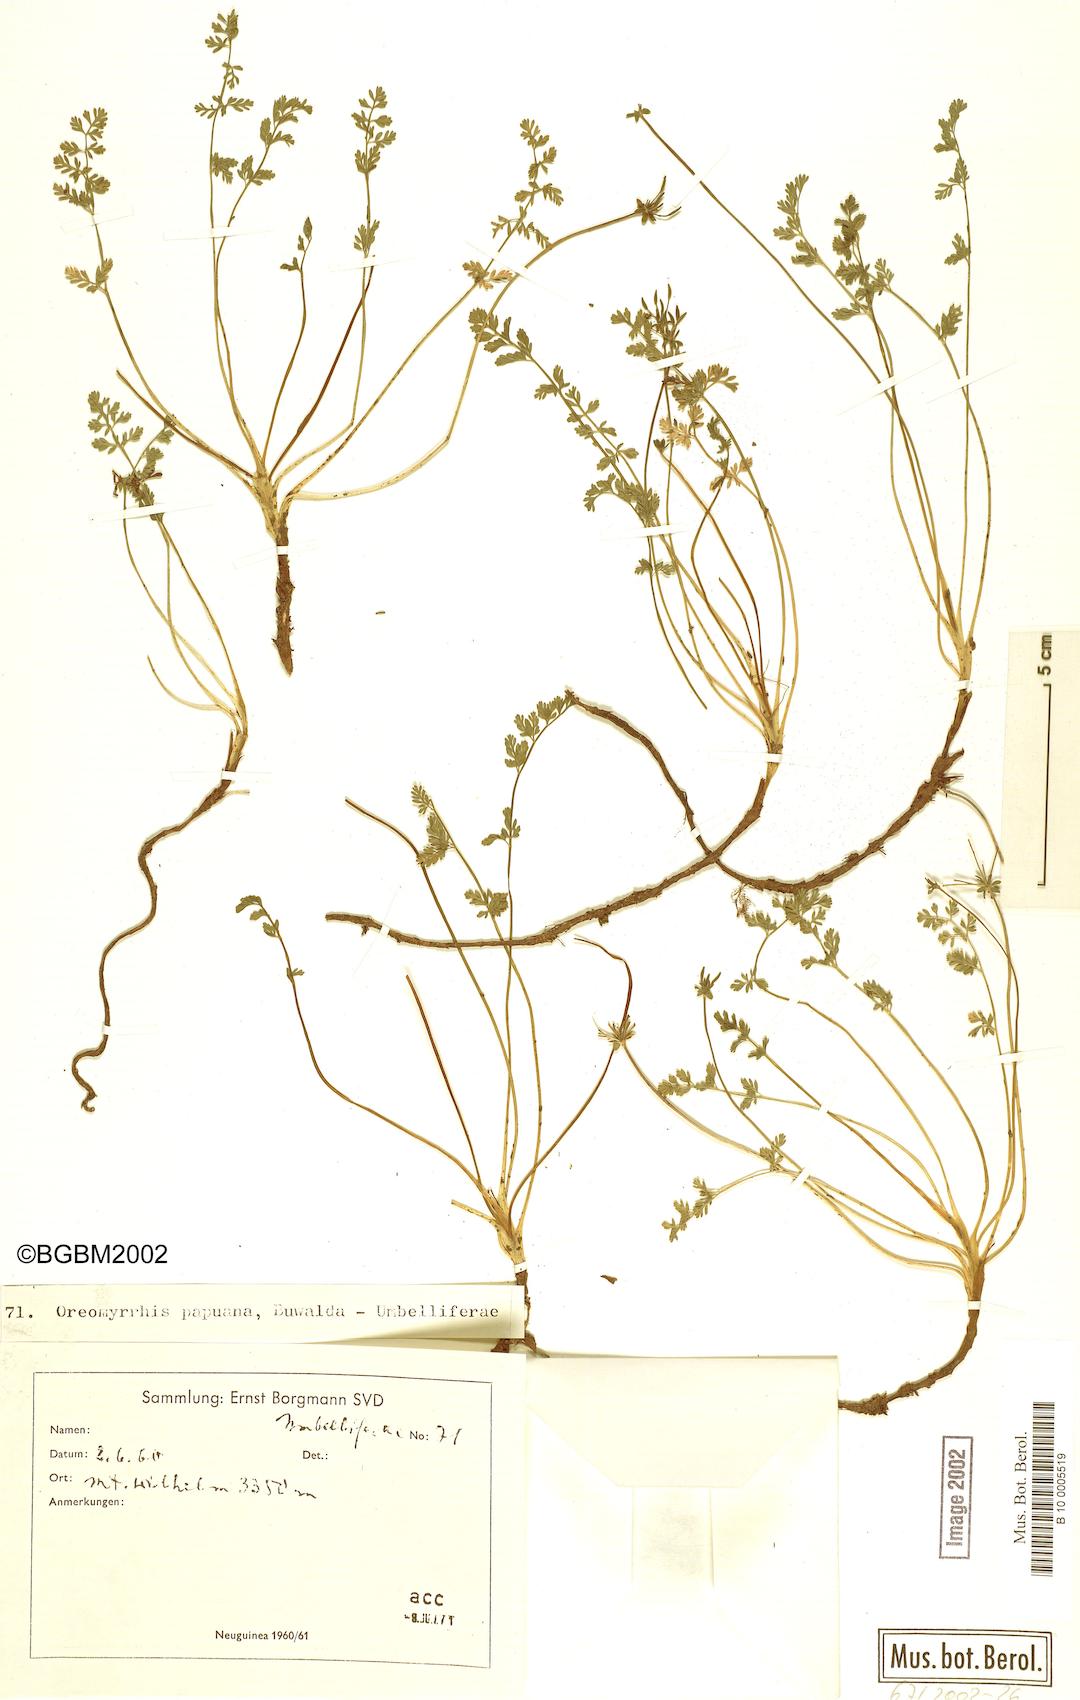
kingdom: Plantae
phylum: Tracheophyta
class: Magnoliopsida
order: Apiales
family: Apiaceae
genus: Chaerophyllum
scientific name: Chaerophyllum papuanum
